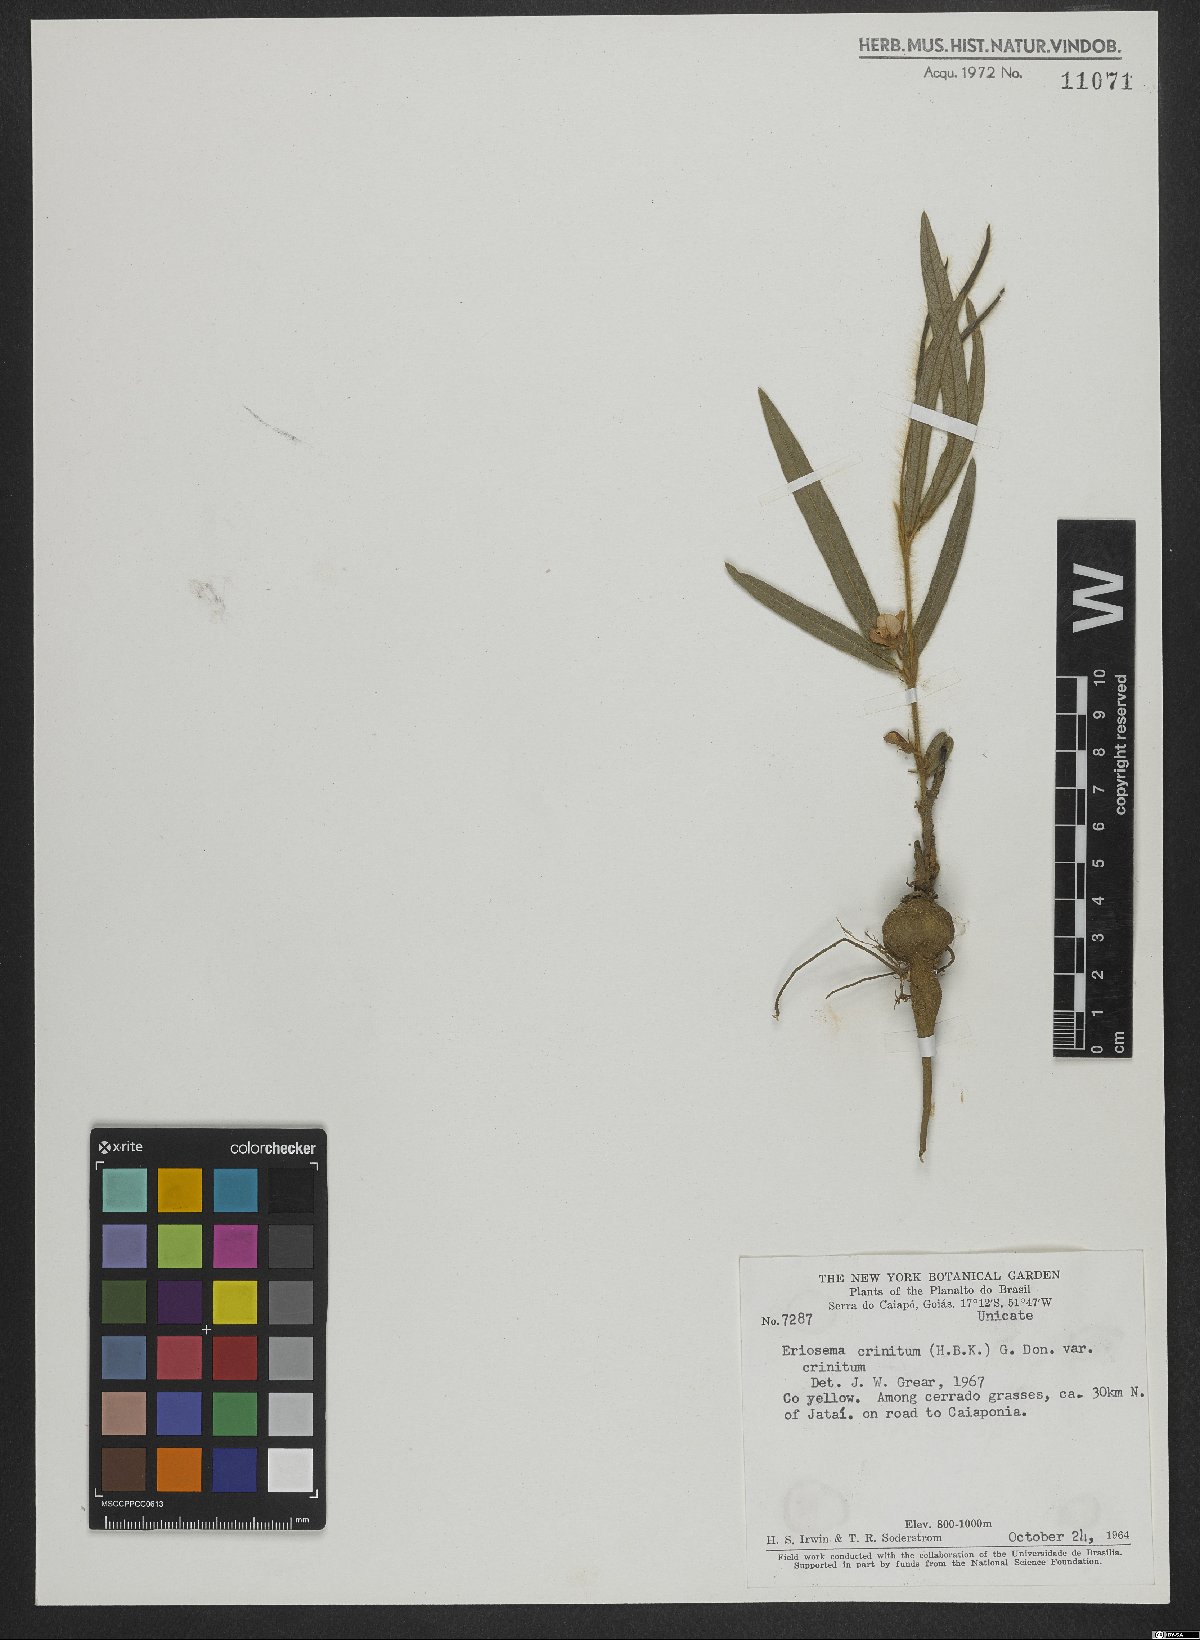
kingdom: Plantae
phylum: Tracheophyta
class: Magnoliopsida
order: Fabales
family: Fabaceae
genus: Eriosema
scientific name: Eriosema crinitum
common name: Sand pea
